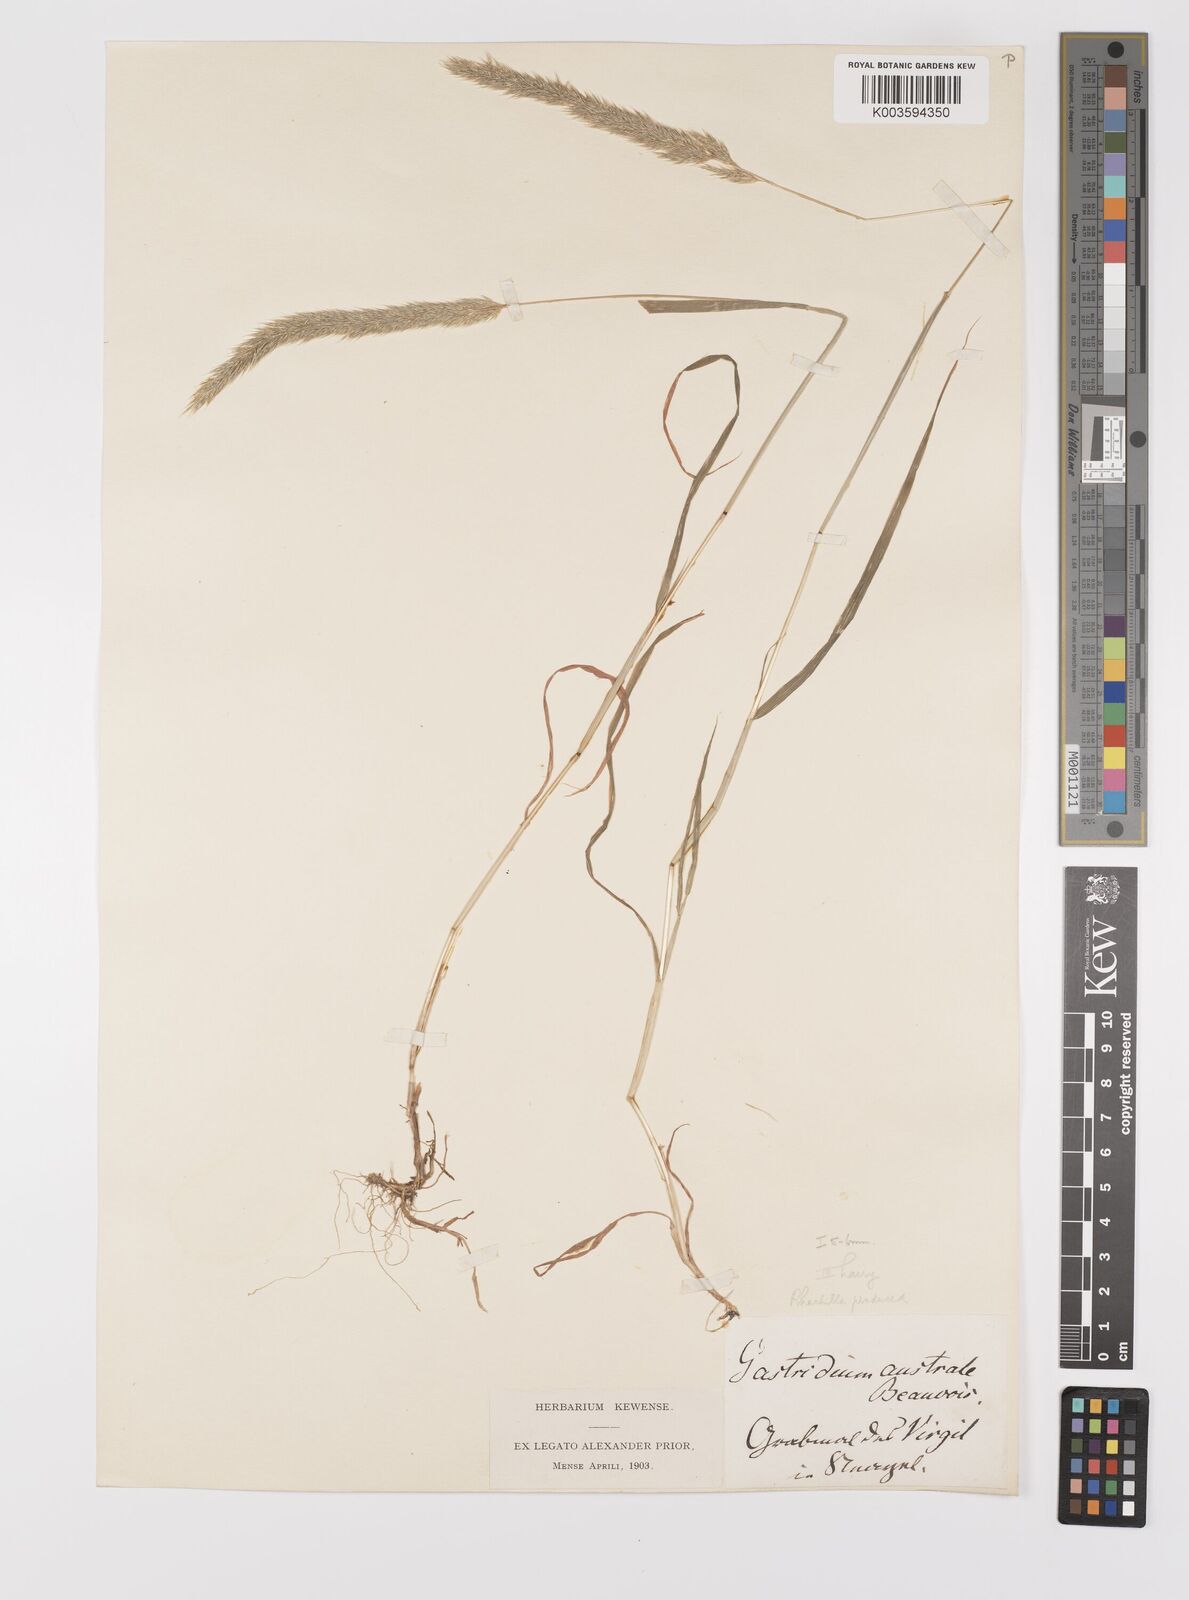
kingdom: Plantae
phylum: Tracheophyta
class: Liliopsida
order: Poales
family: Poaceae
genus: Gastridium
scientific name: Gastridium phleoides
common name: Nit grass
